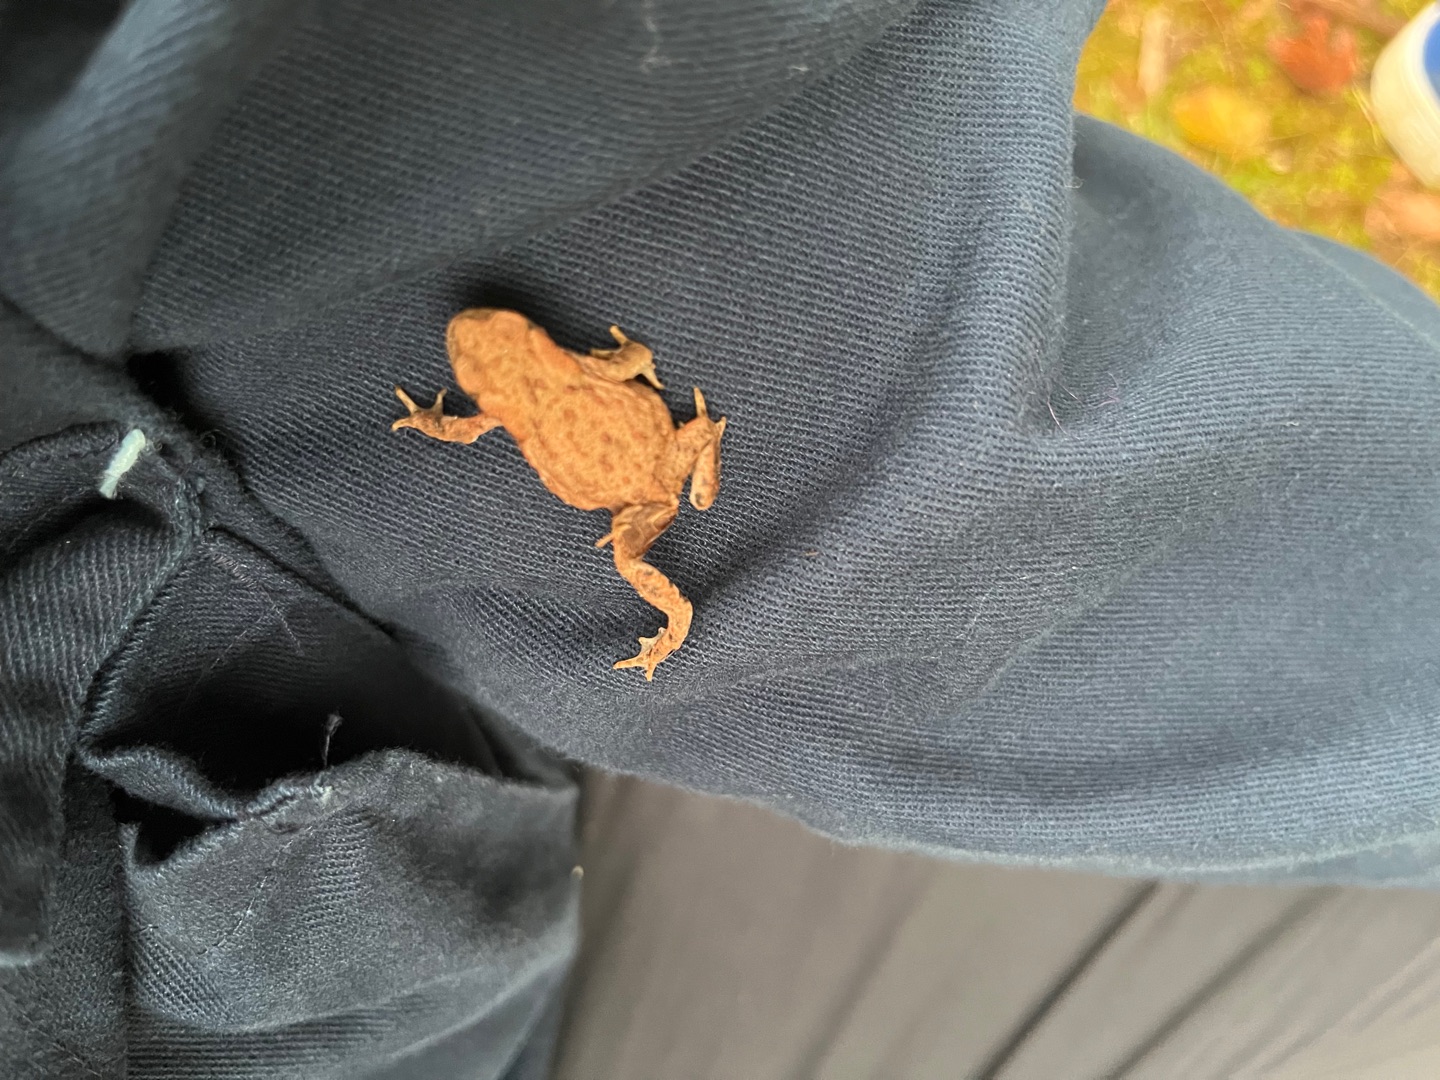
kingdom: Animalia
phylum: Chordata
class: Amphibia
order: Anura
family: Bufonidae
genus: Bufo
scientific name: Bufo bufo
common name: Skrubtudse
